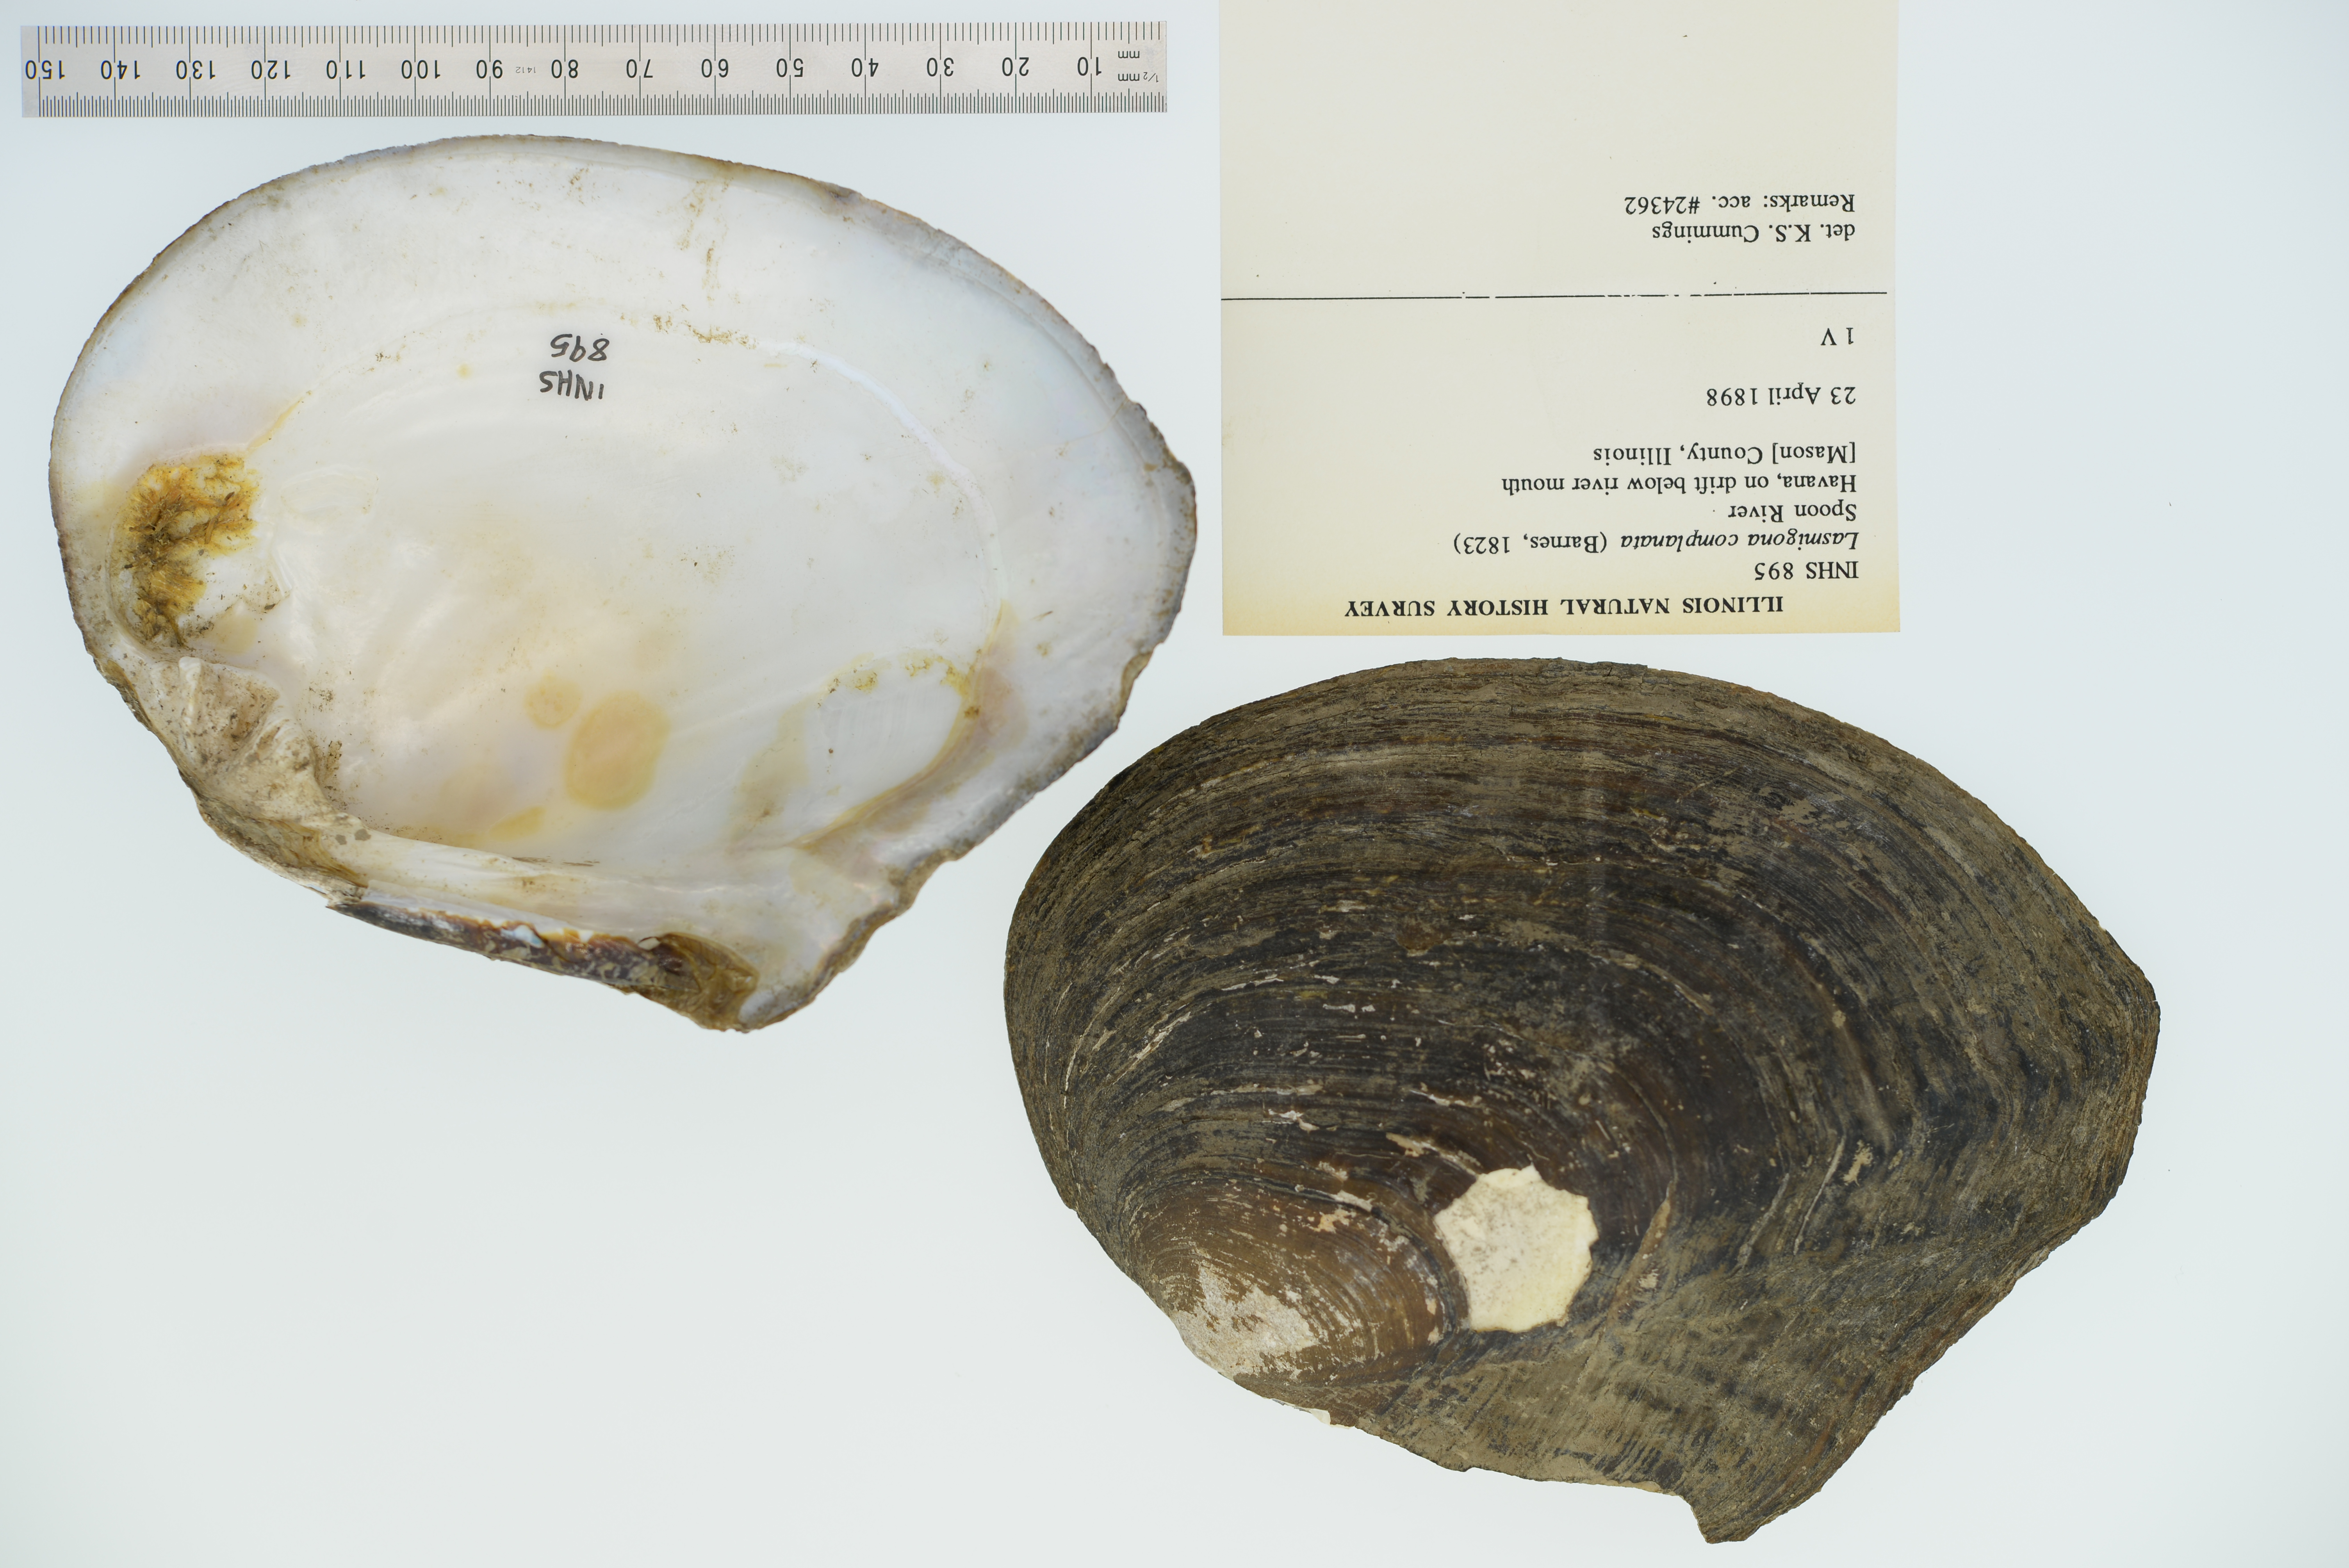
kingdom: Animalia
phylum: Mollusca
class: Bivalvia
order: Unionida
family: Unionidae
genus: Lasmigona
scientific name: Lasmigona complanata
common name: White heelsplitter
